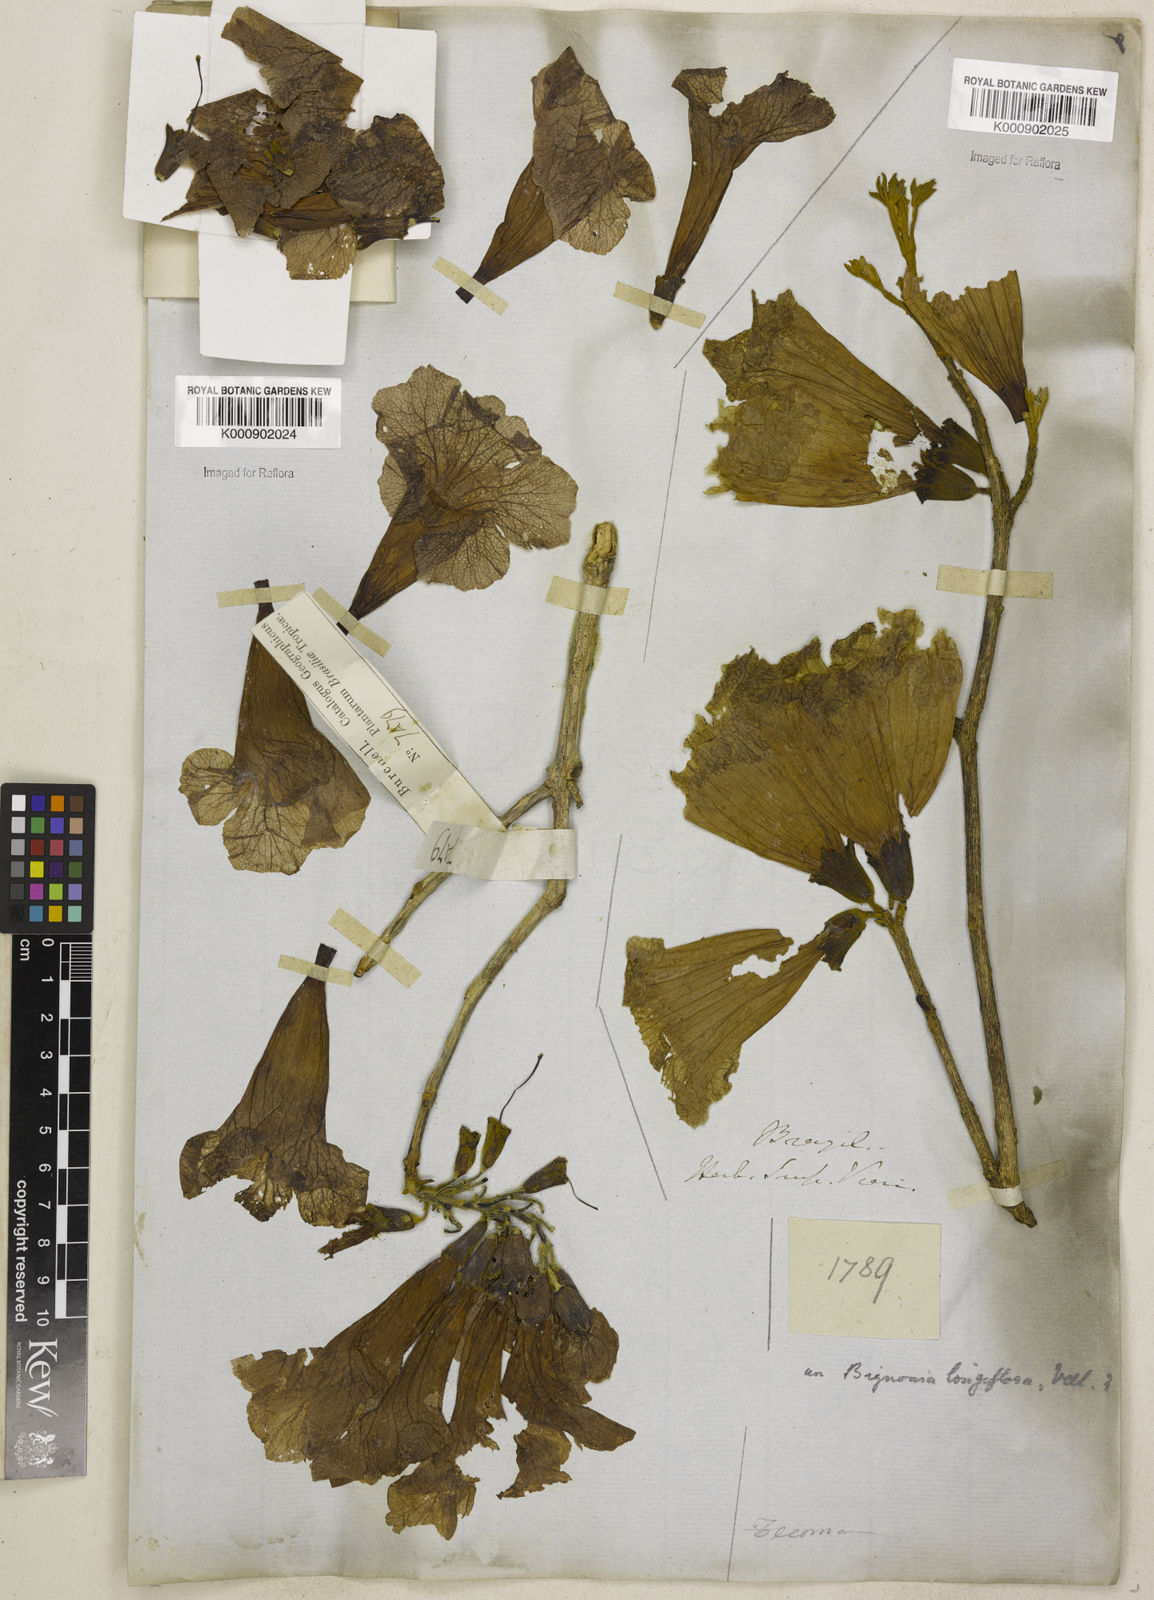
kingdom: Plantae
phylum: Tracheophyta
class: Magnoliopsida
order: Lamiales
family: Bignoniaceae
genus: Ekmanianthe
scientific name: Ekmanianthe longiflora
